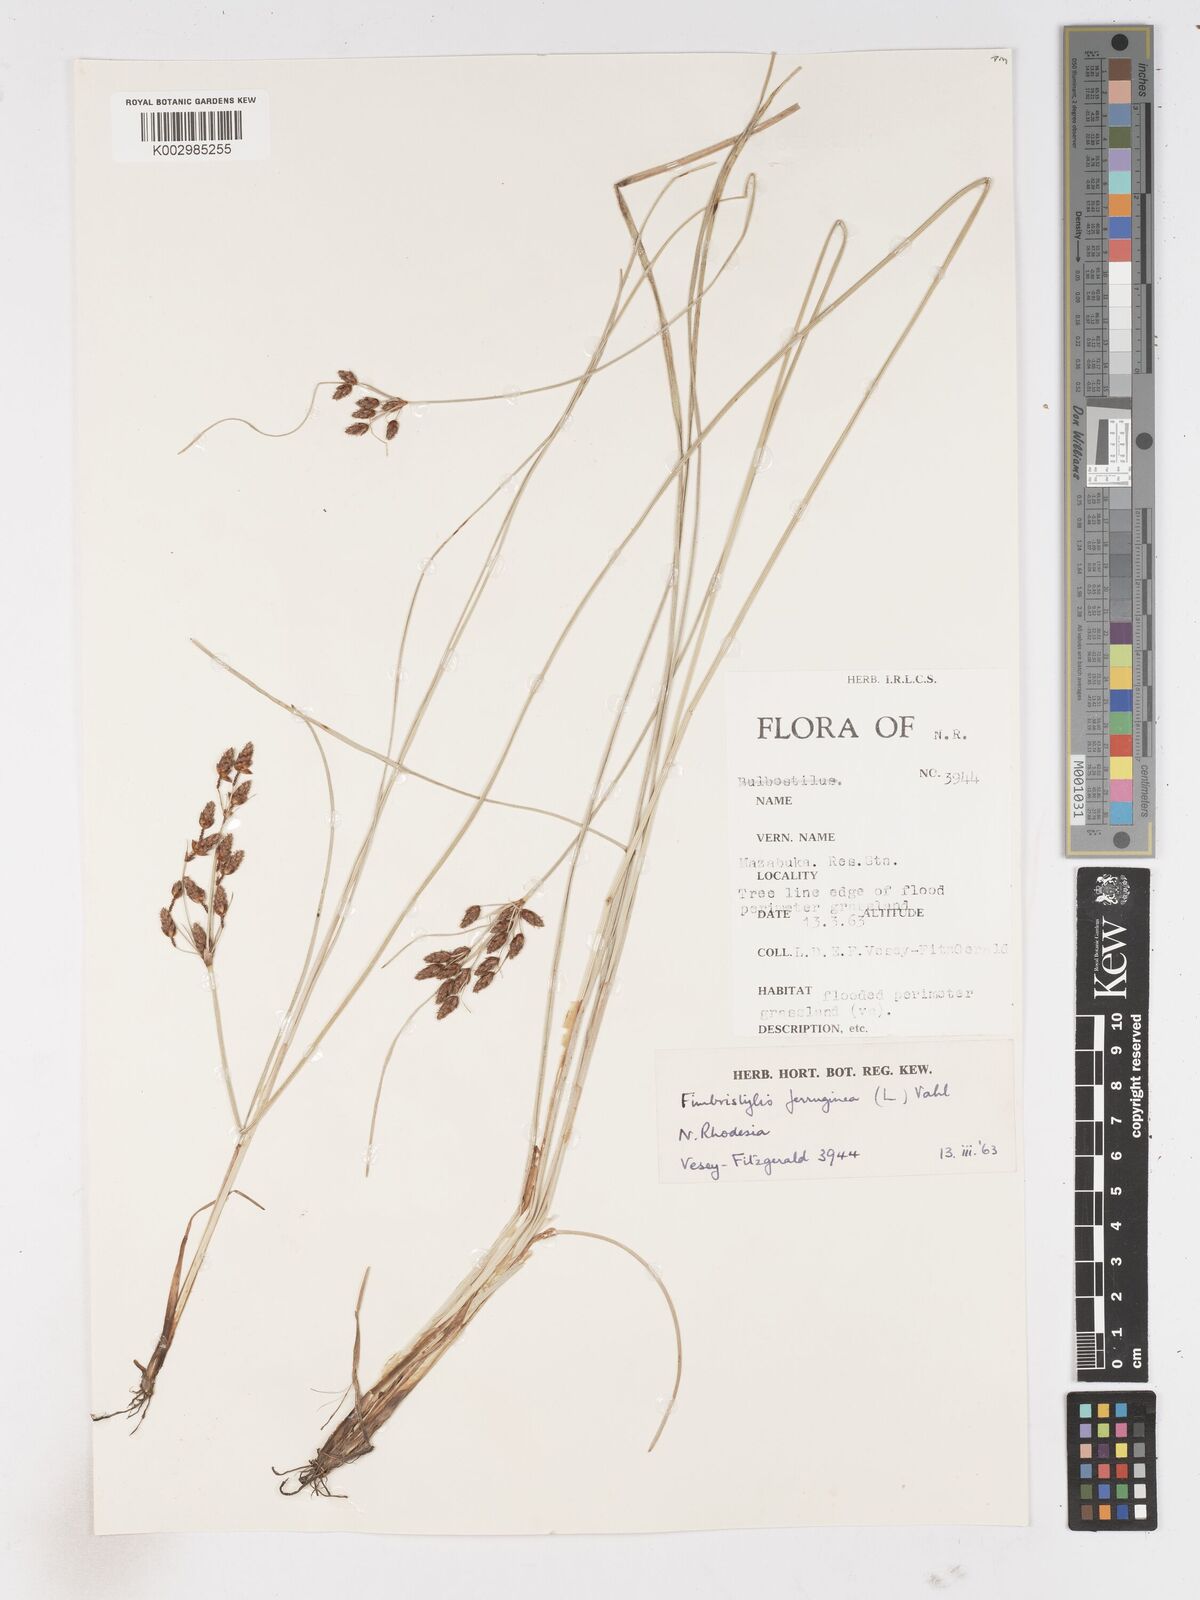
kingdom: Plantae
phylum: Tracheophyta
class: Liliopsida
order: Poales
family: Cyperaceae
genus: Fimbristylis
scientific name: Fimbristylis ferruginea
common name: West indian fimbry
